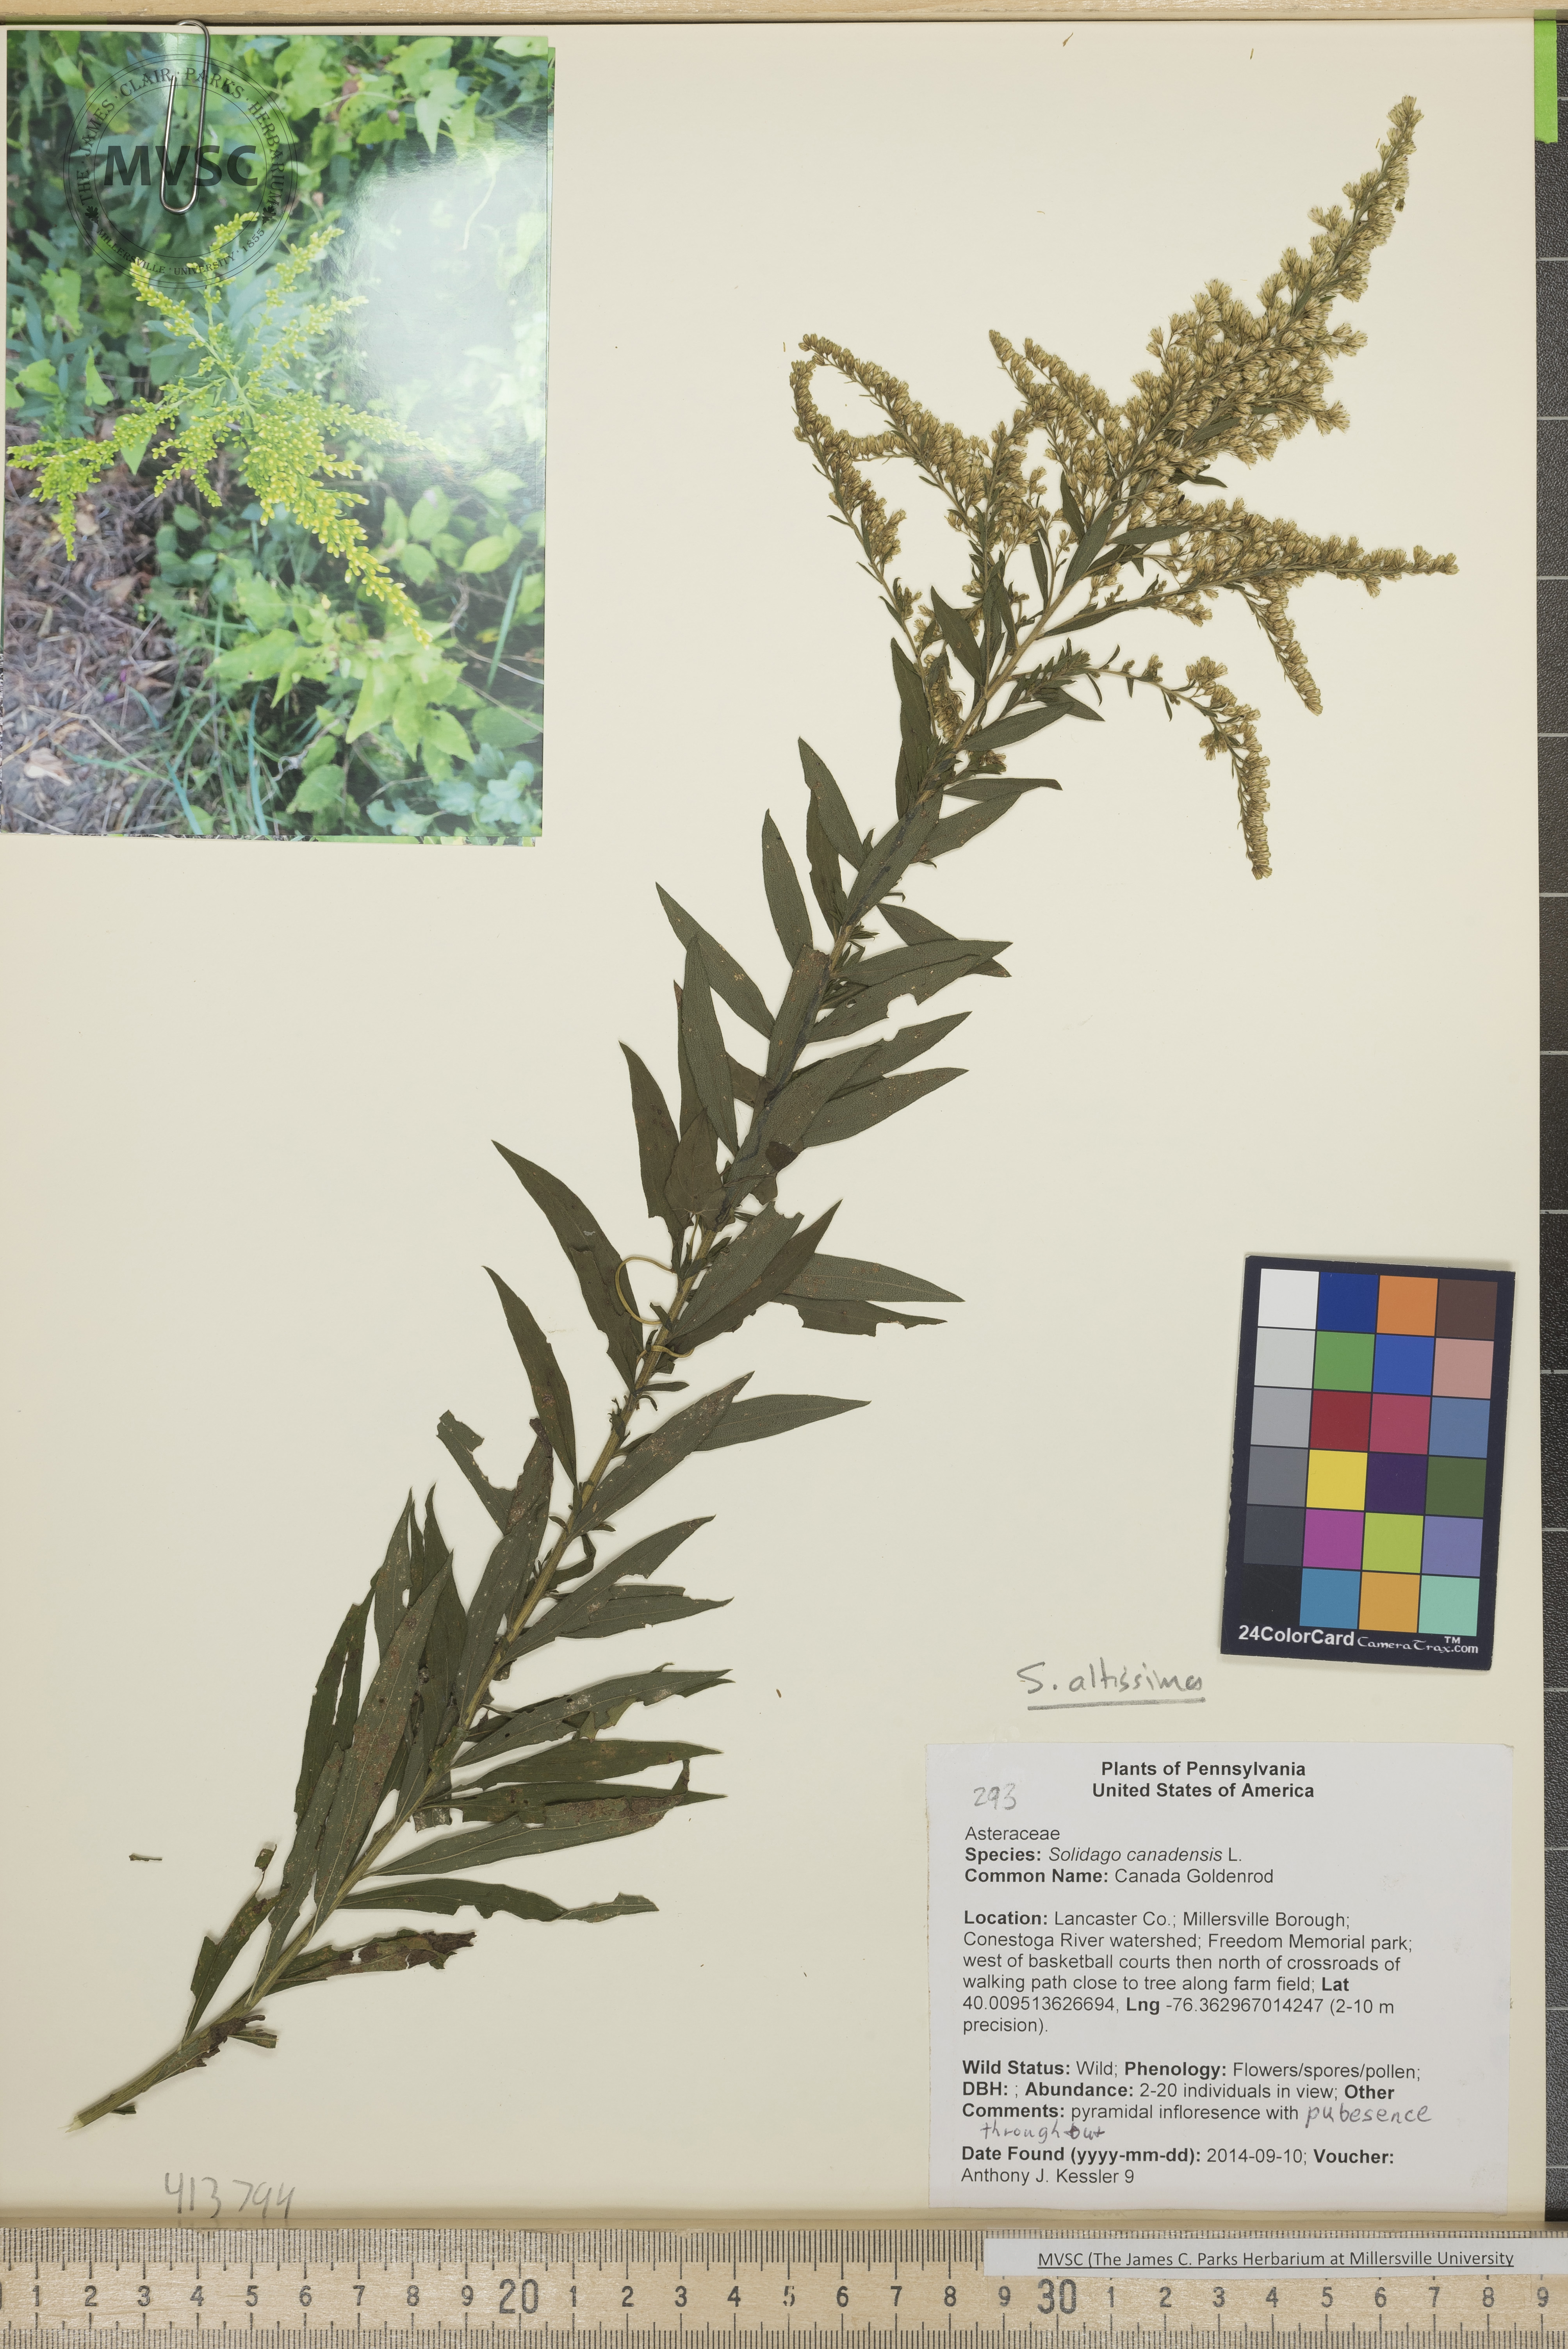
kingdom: Plantae
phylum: Tracheophyta
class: Magnoliopsida
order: Asterales
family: Asteraceae
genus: Solidago
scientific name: Solidago altissima
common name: Late Goldenrod
